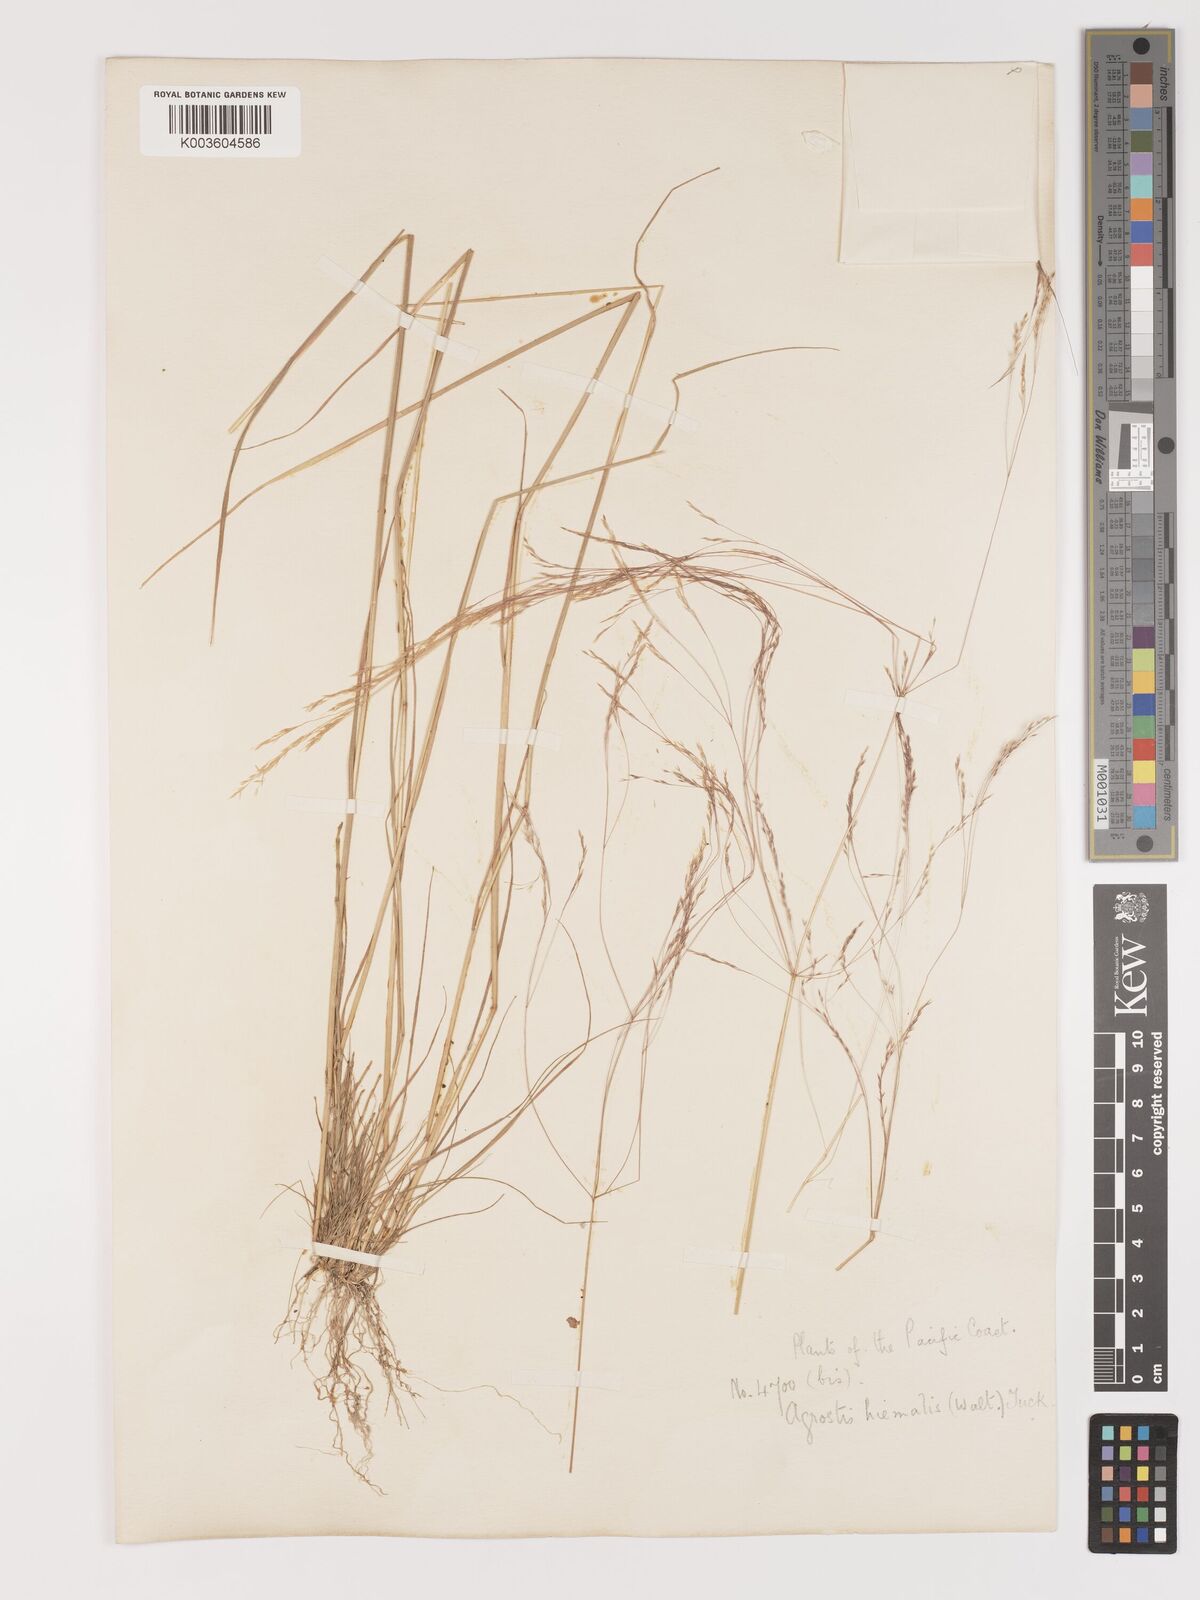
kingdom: Plantae
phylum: Tracheophyta
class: Liliopsida
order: Poales
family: Poaceae
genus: Agrostis
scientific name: Agrostis hyemalis
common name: Small bent
